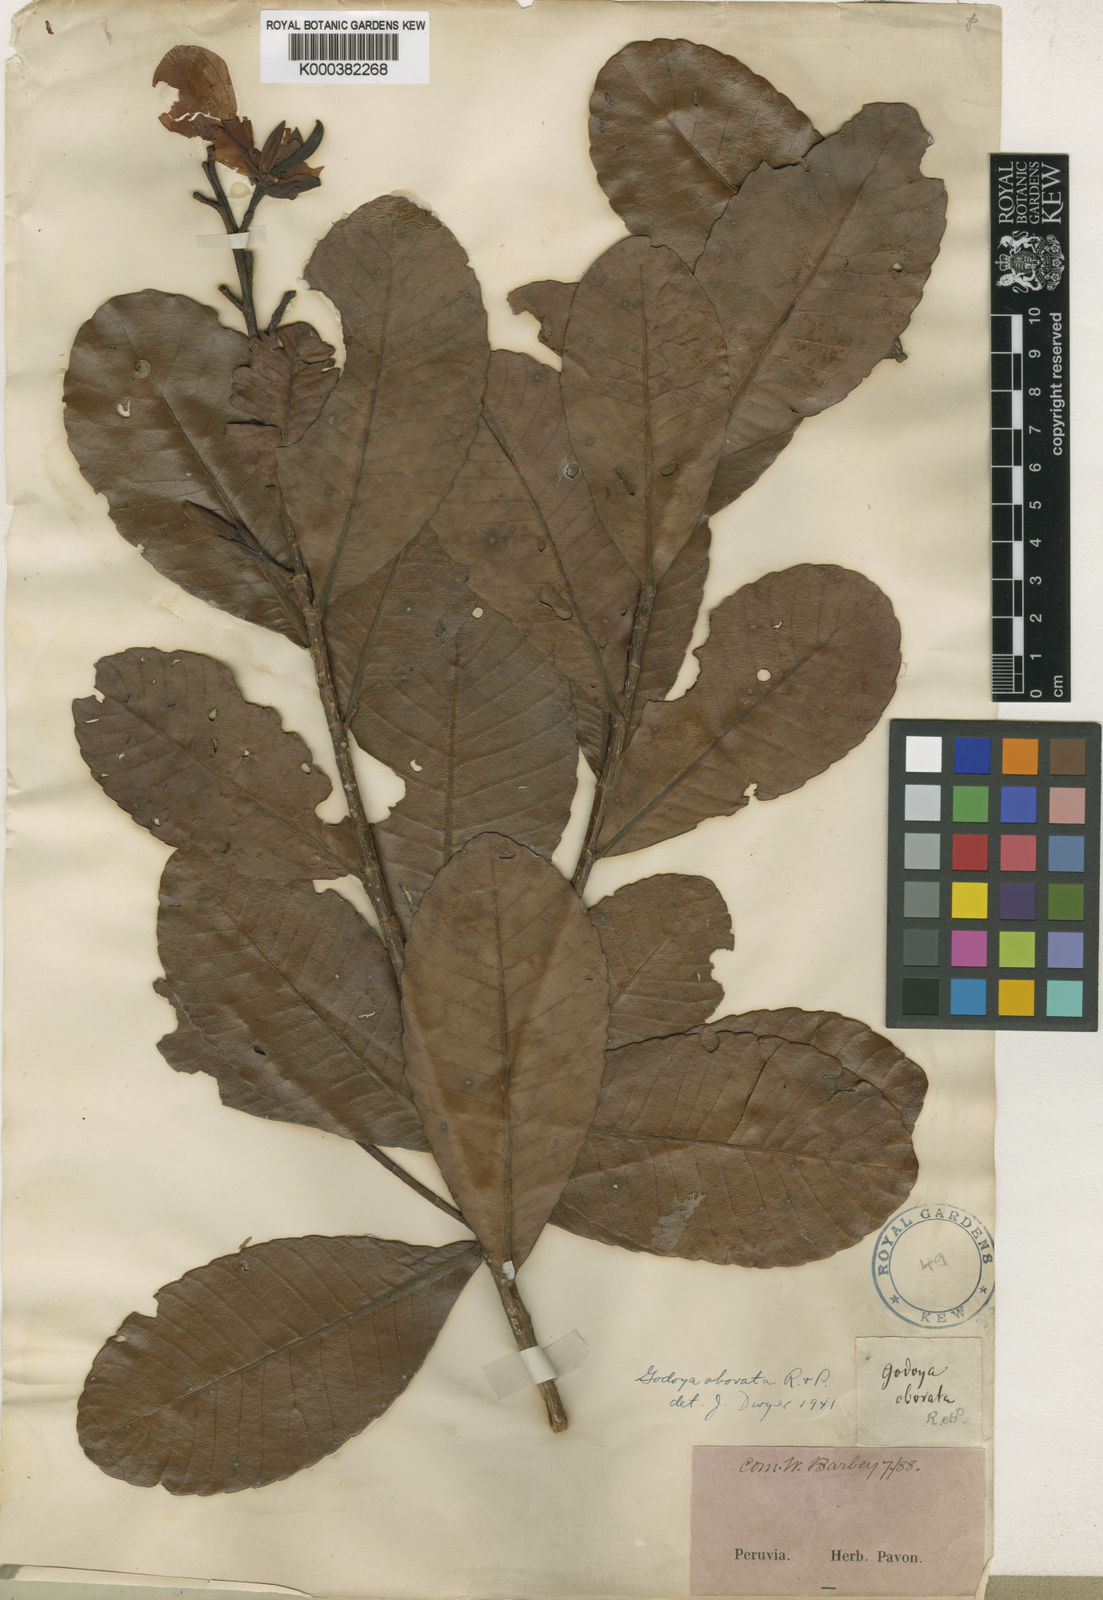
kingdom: Plantae
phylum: Tracheophyta
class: Magnoliopsida
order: Malpighiales
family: Ochnaceae
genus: Godoya
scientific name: Godoya obovata
